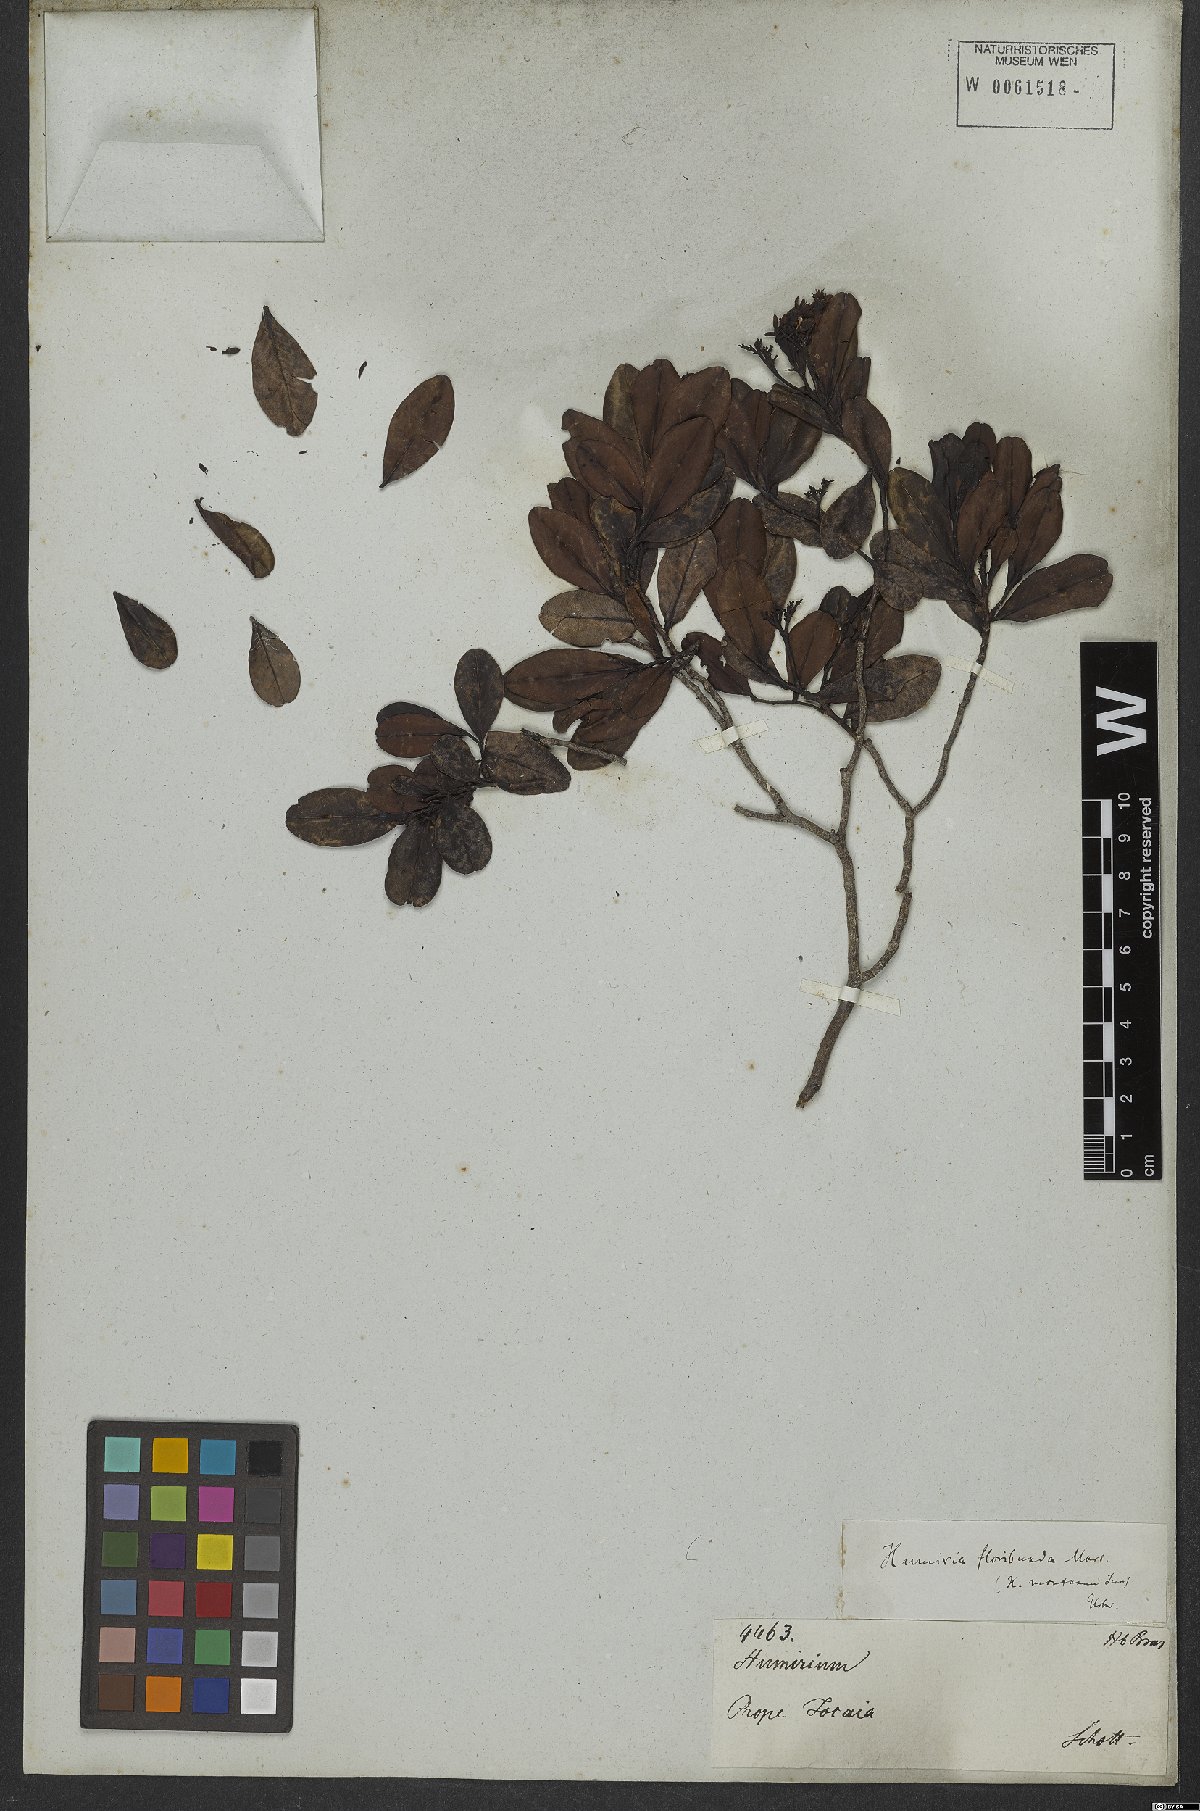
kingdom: Plantae
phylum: Tracheophyta
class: Magnoliopsida
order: Malpighiales
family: Humiriaceae
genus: Humiria
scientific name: Humiria
